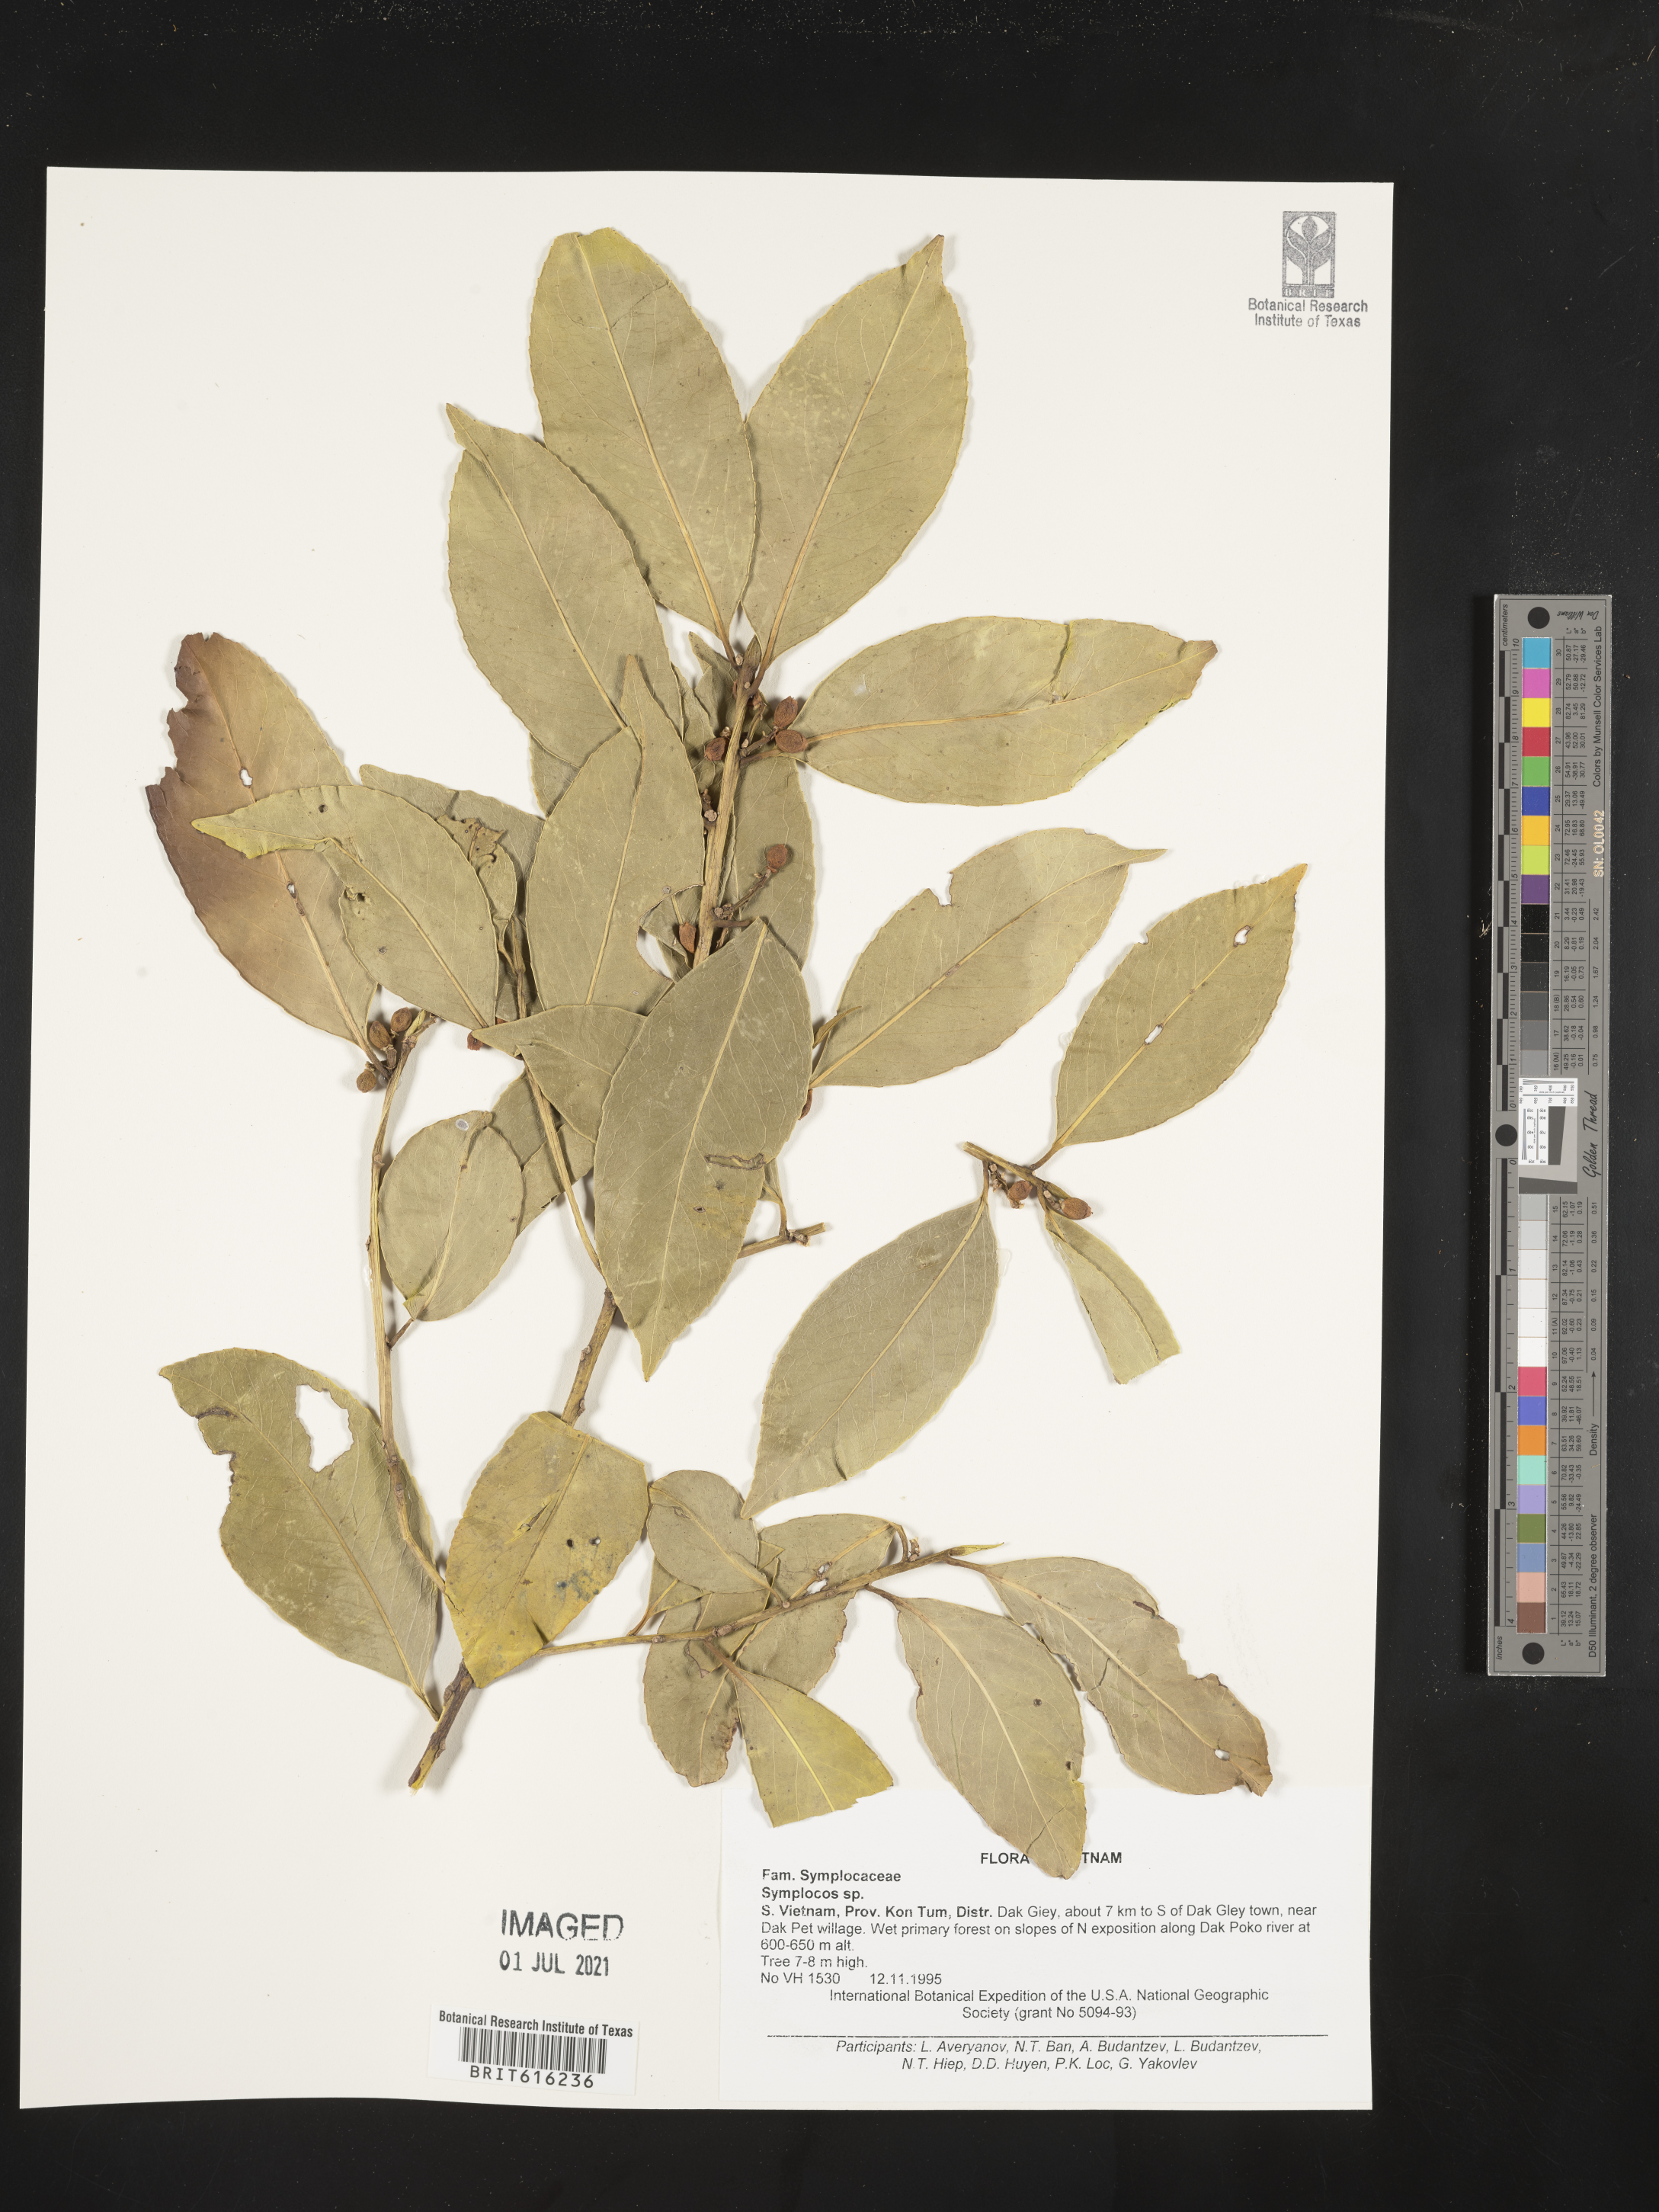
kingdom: Plantae
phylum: Tracheophyta
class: Magnoliopsida
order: Ericales
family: Symplocaceae
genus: Symplocos
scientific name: Symplocos
